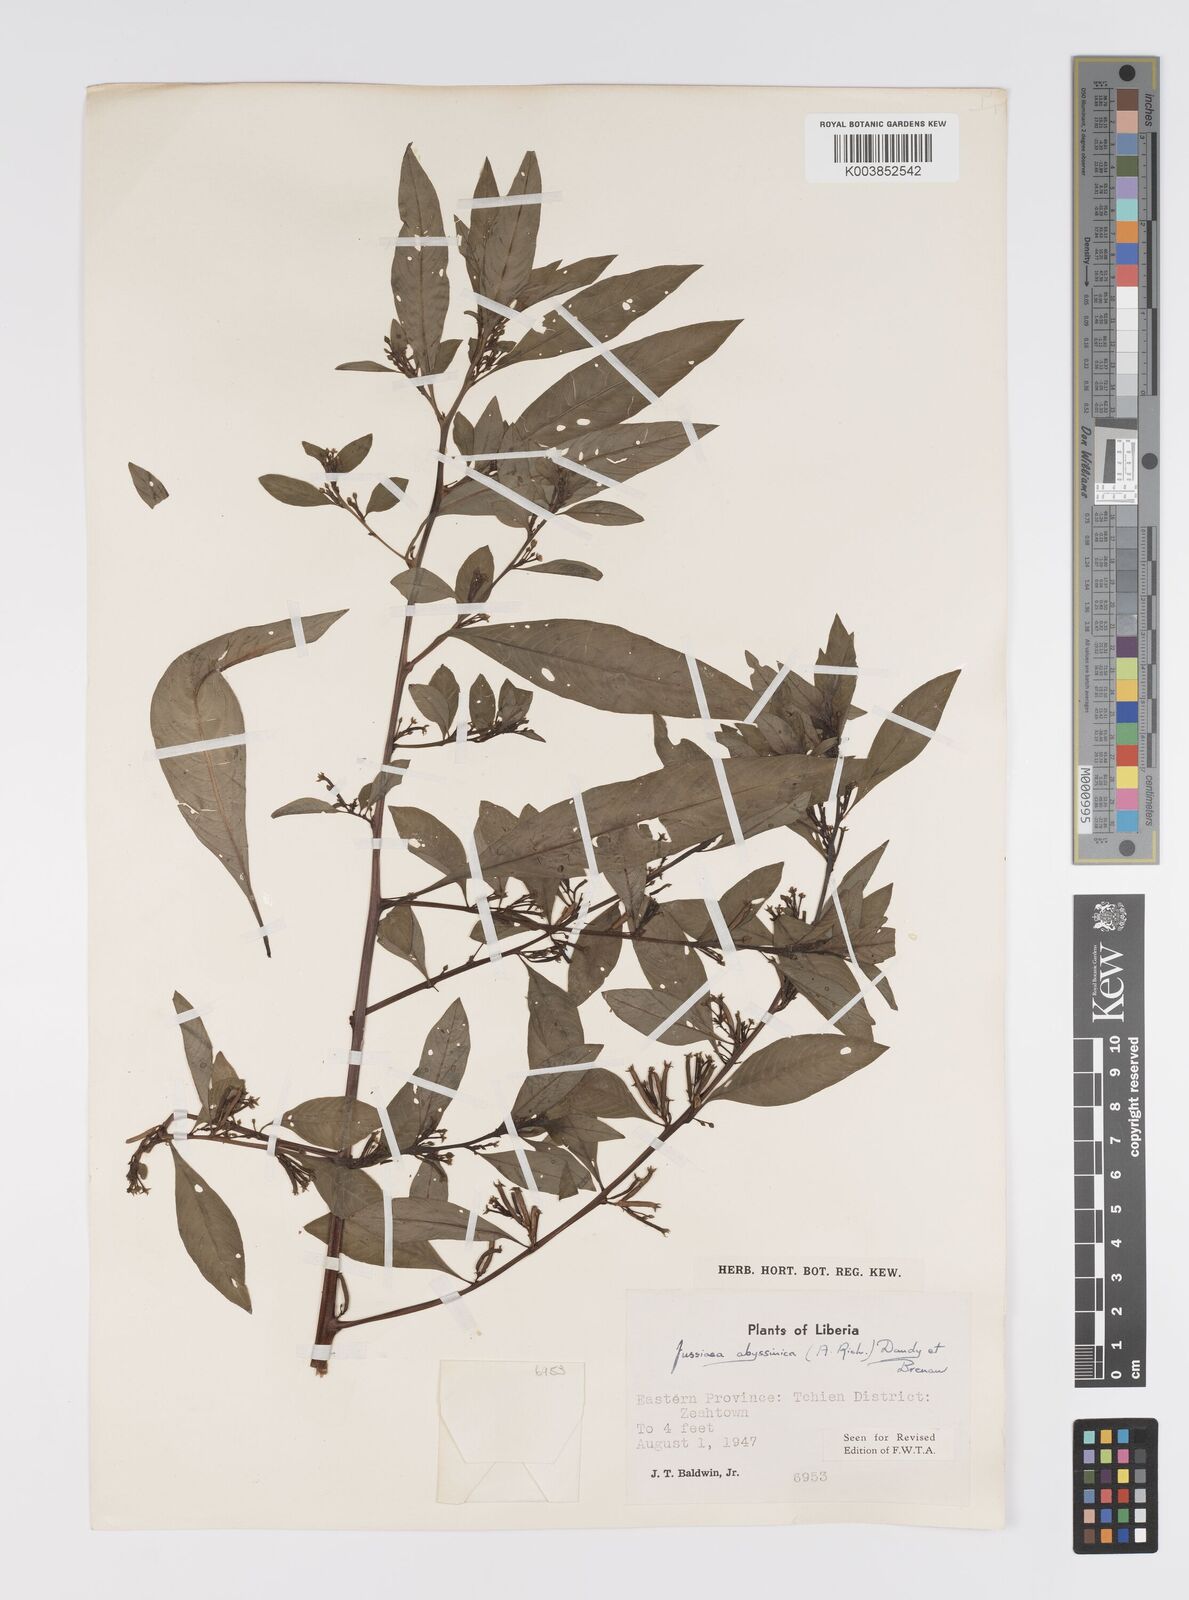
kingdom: Plantae
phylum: Tracheophyta
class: Magnoliopsida
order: Myrtales
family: Onagraceae
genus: Ludwigia
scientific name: Ludwigia abyssinica
